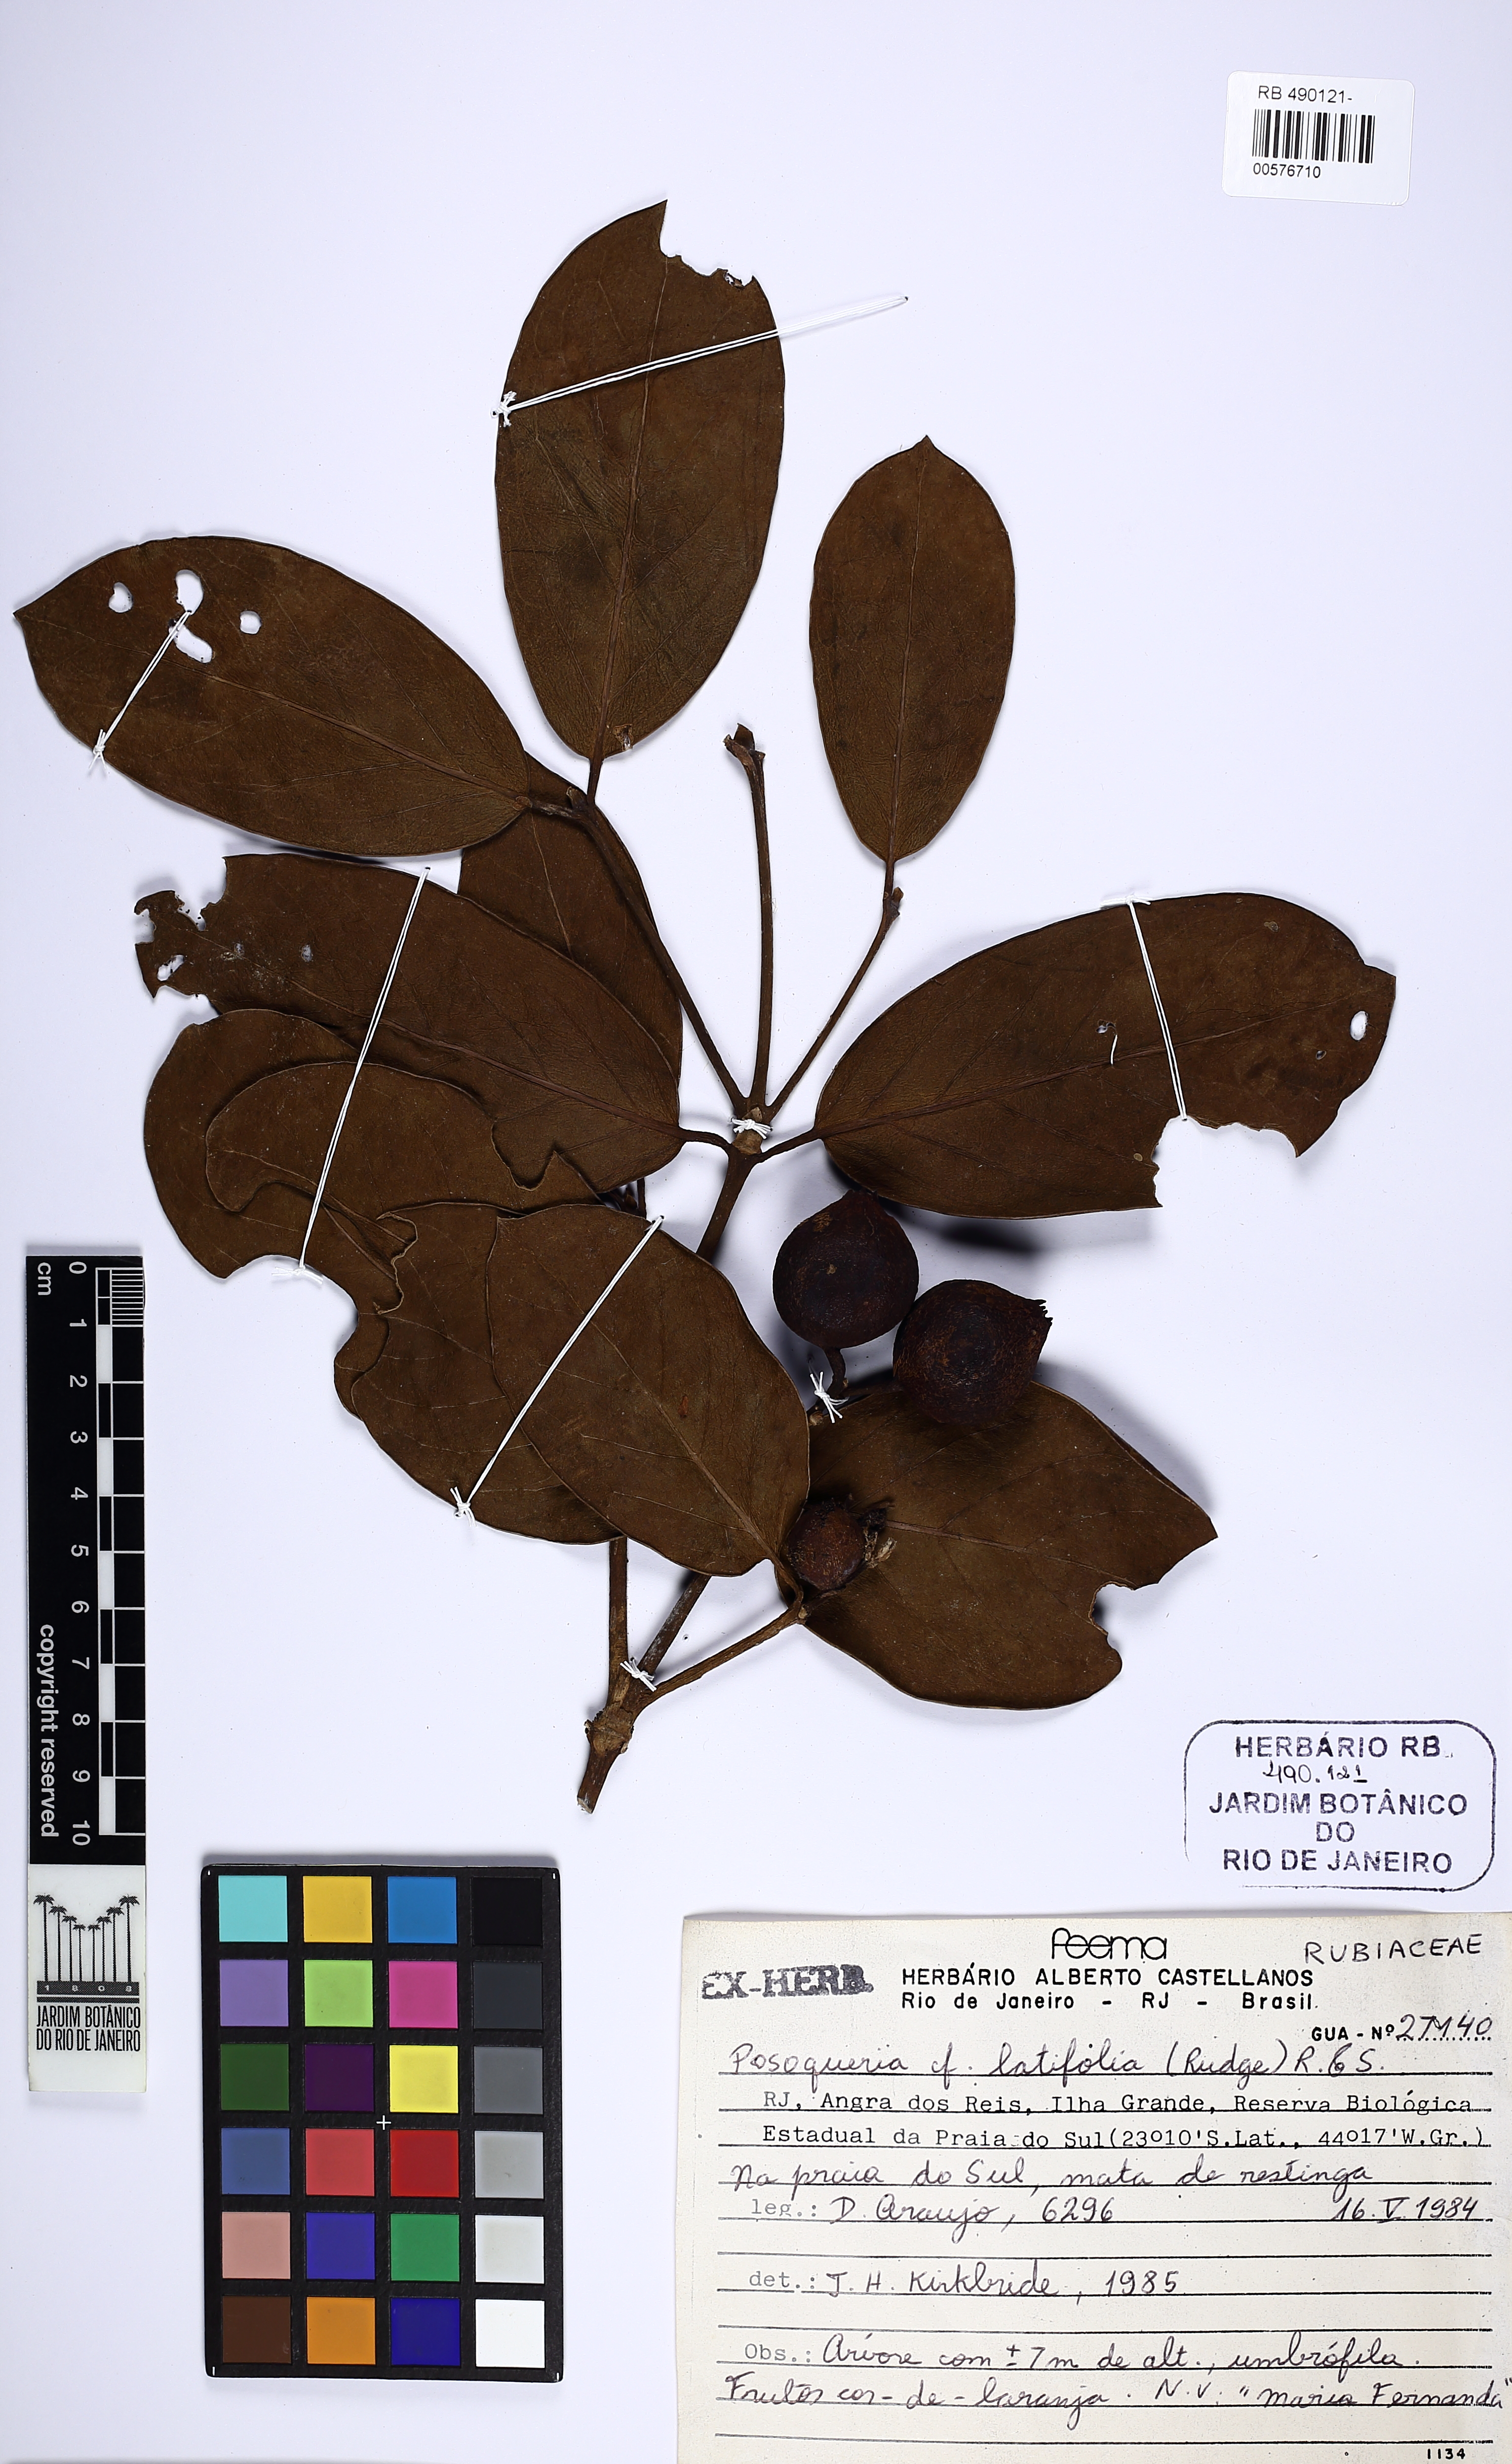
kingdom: Plantae
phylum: Tracheophyta
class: Magnoliopsida
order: Gentianales
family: Rubiaceae
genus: Posoqueria
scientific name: Posoqueria latifolia
